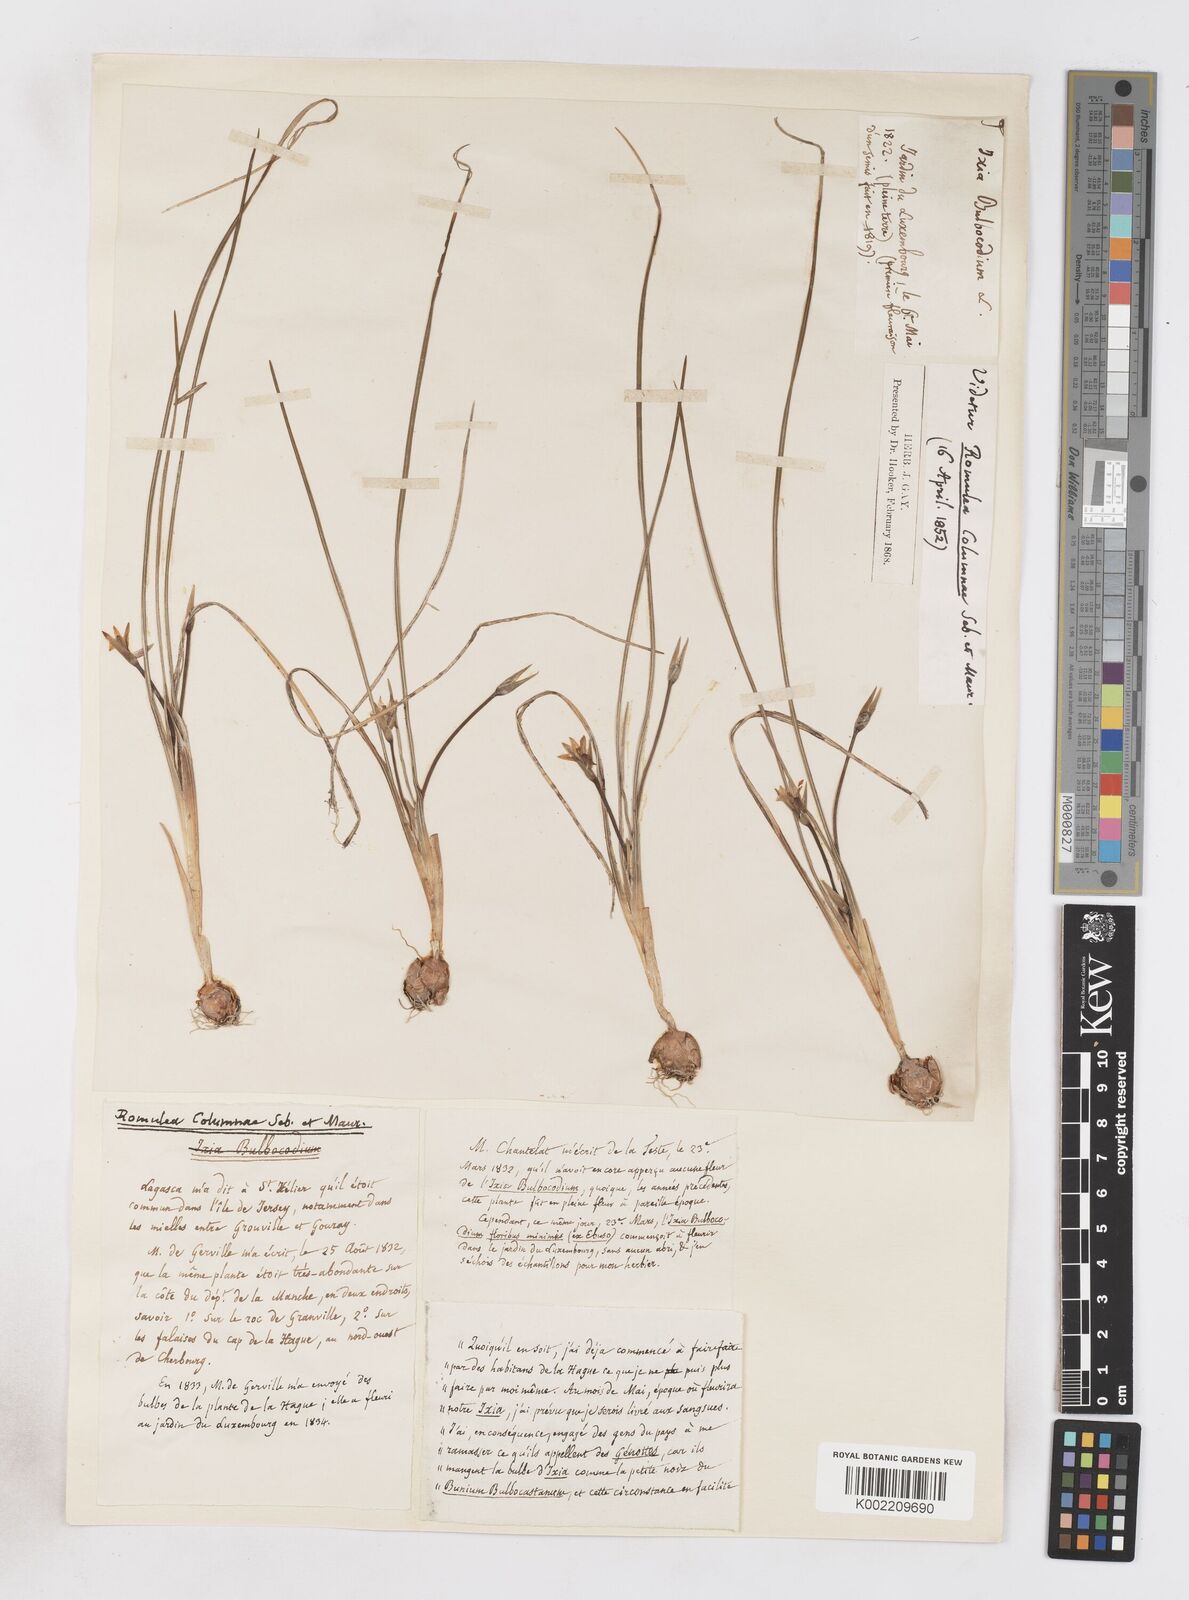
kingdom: Plantae
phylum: Tracheophyta
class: Liliopsida
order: Asparagales
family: Iridaceae
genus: Romulea
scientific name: Romulea ramiflora
